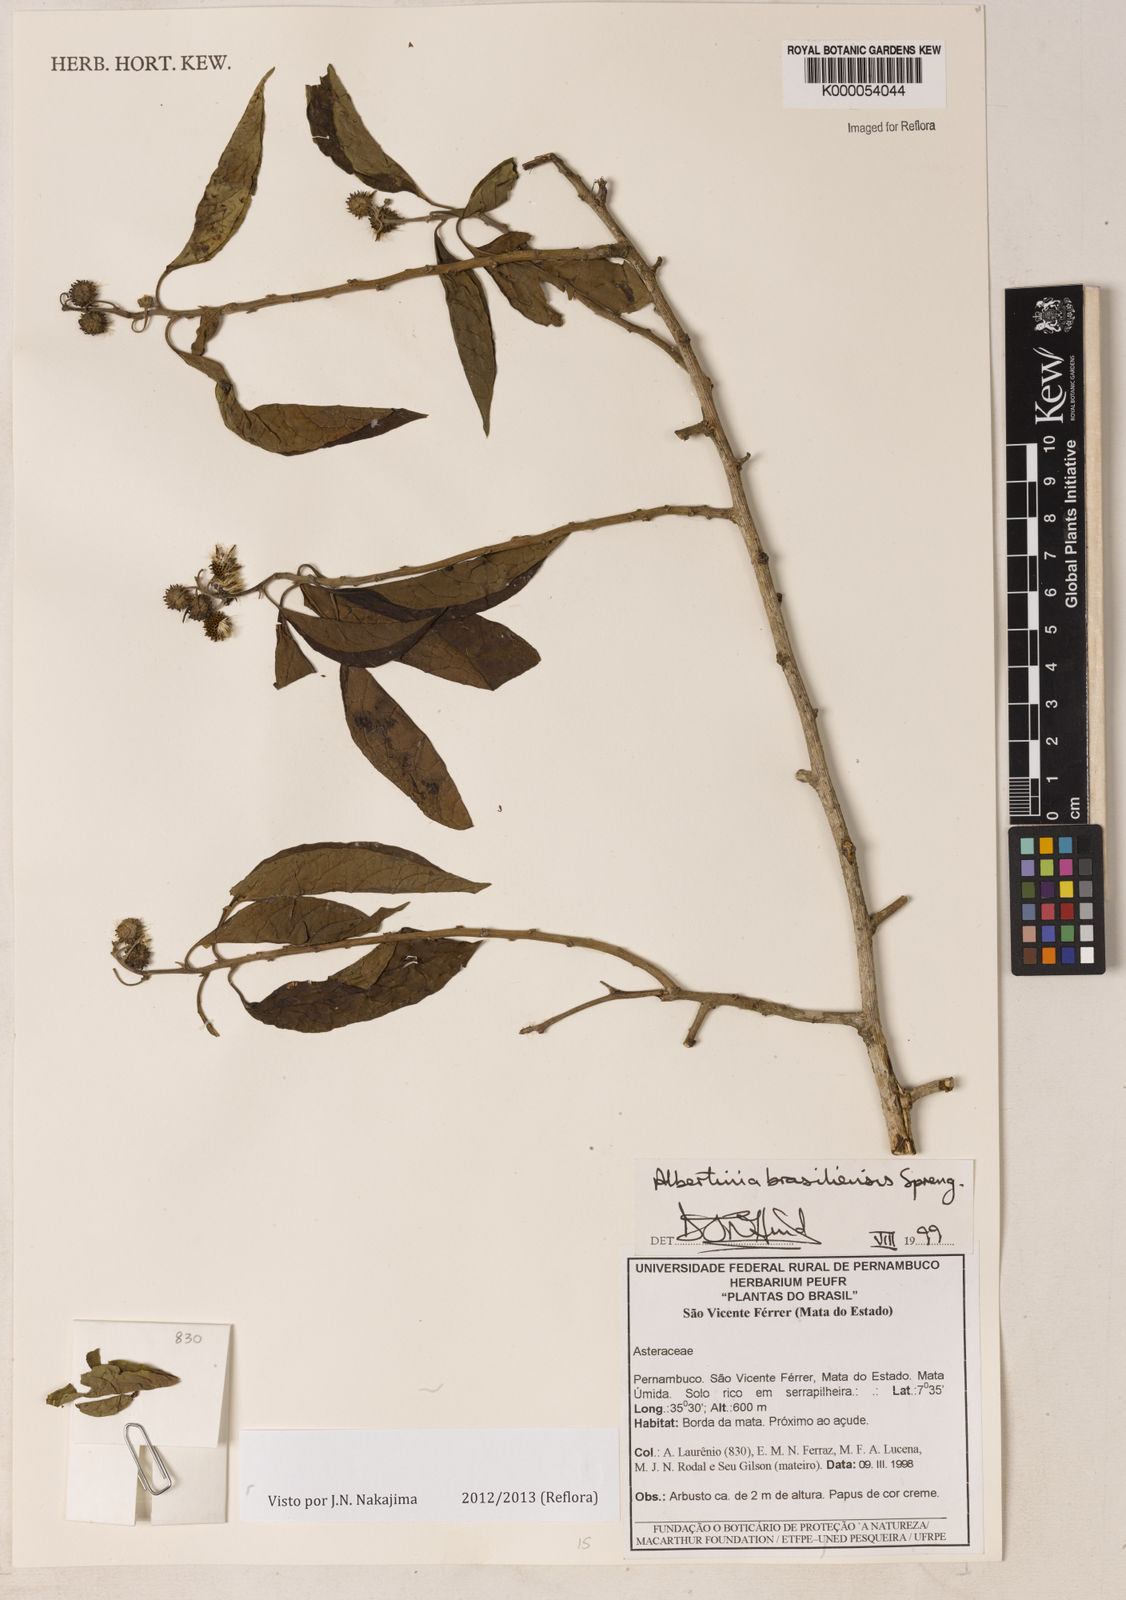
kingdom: Plantae
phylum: Tracheophyta
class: Magnoliopsida
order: Asterales
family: Asteraceae
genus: Albertinia
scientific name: Albertinia brasiliensis
